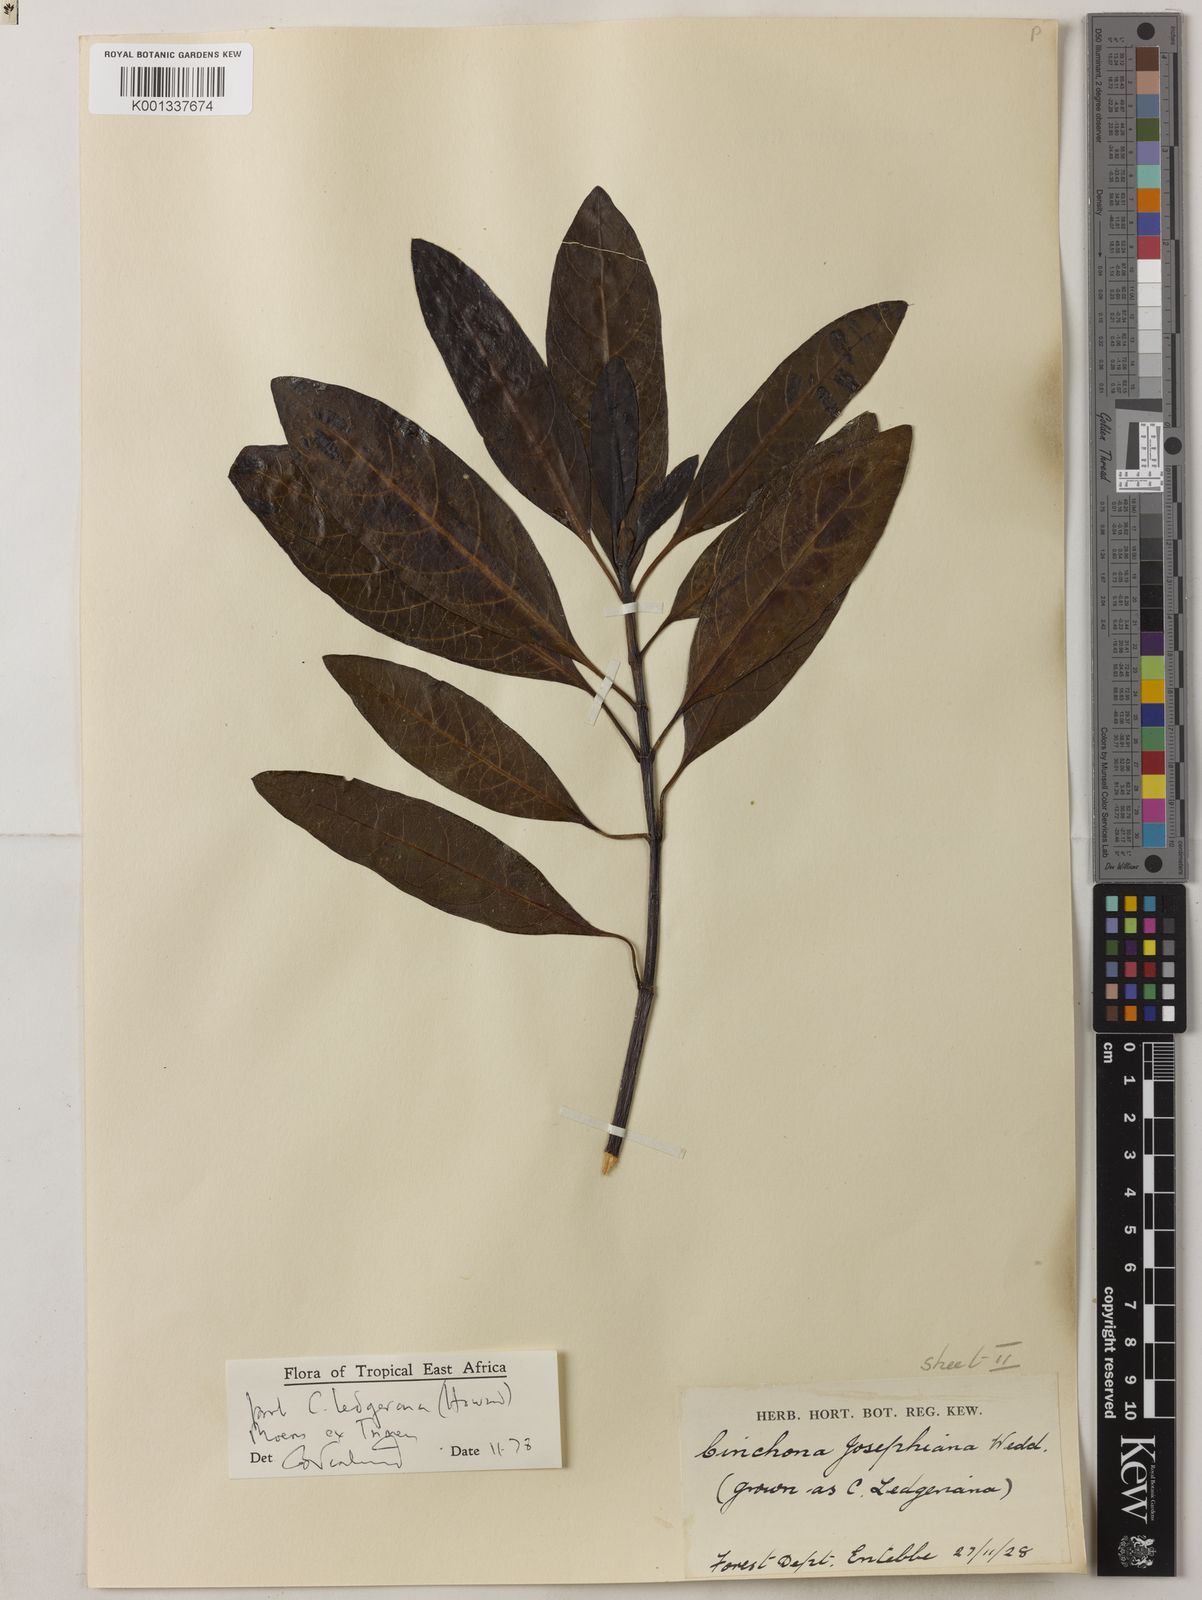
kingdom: Plantae
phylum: Tracheophyta
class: Magnoliopsida
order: Gentianales
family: Rubiaceae
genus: Cinchona
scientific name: Cinchona officinalis
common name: Lojabark
